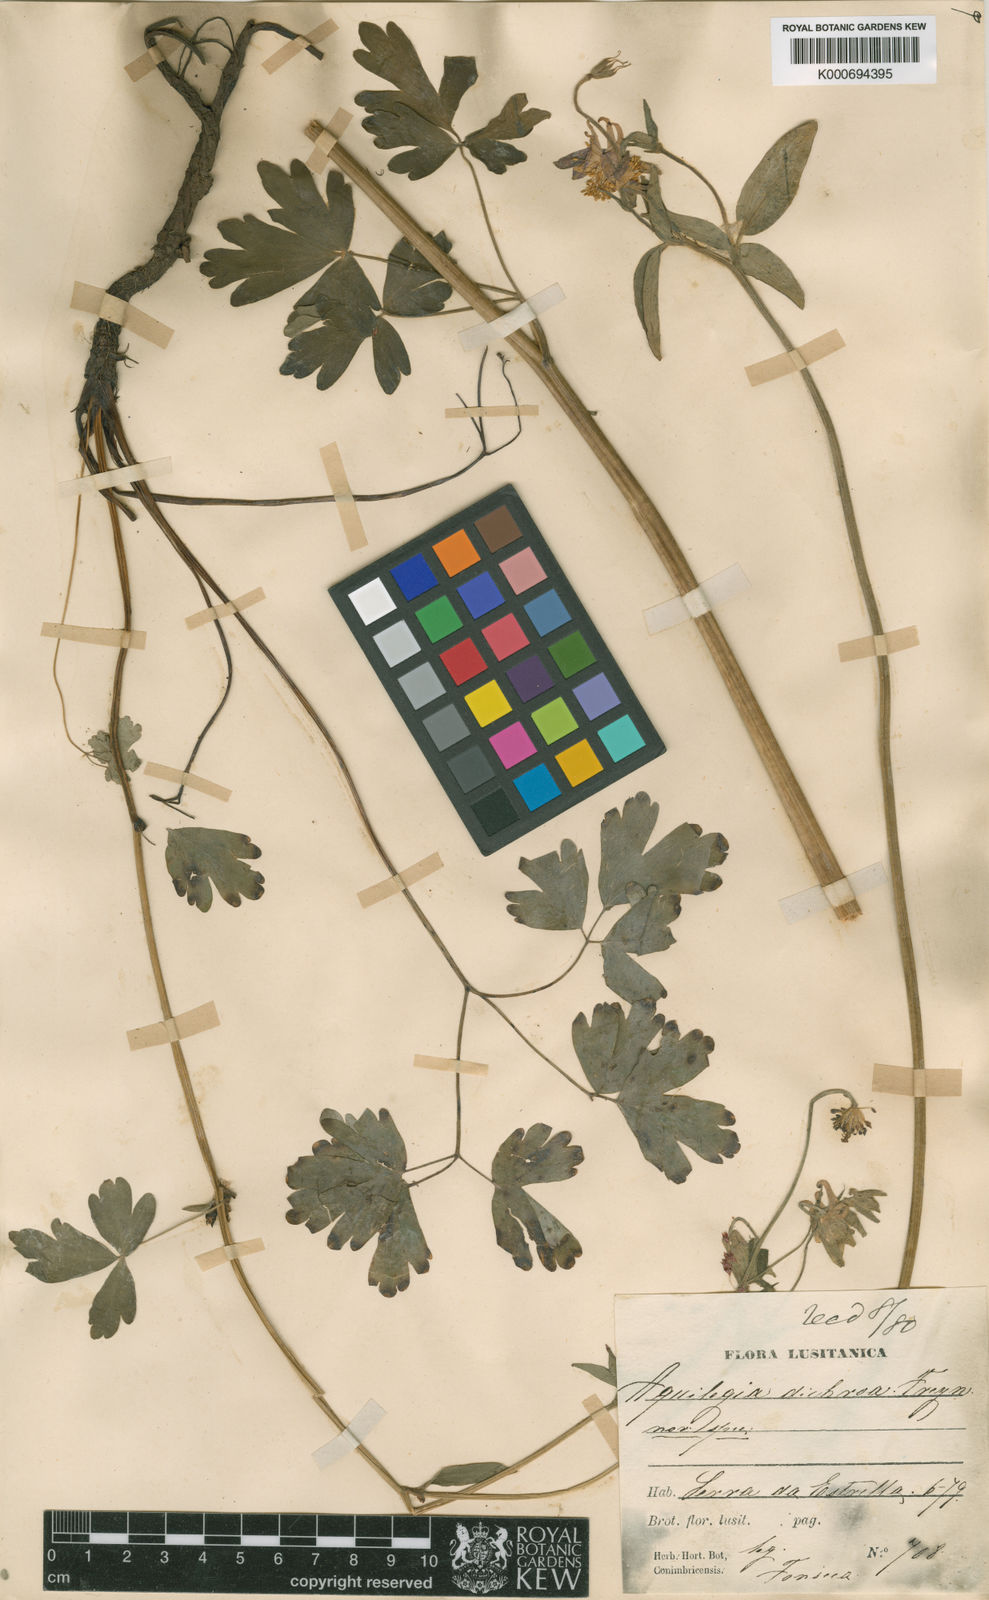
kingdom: Plantae
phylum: Tracheophyta
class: Magnoliopsida
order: Ranunculales
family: Ranunculaceae
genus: Aquilegia
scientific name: Aquilegia vulgaris
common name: Columbine
